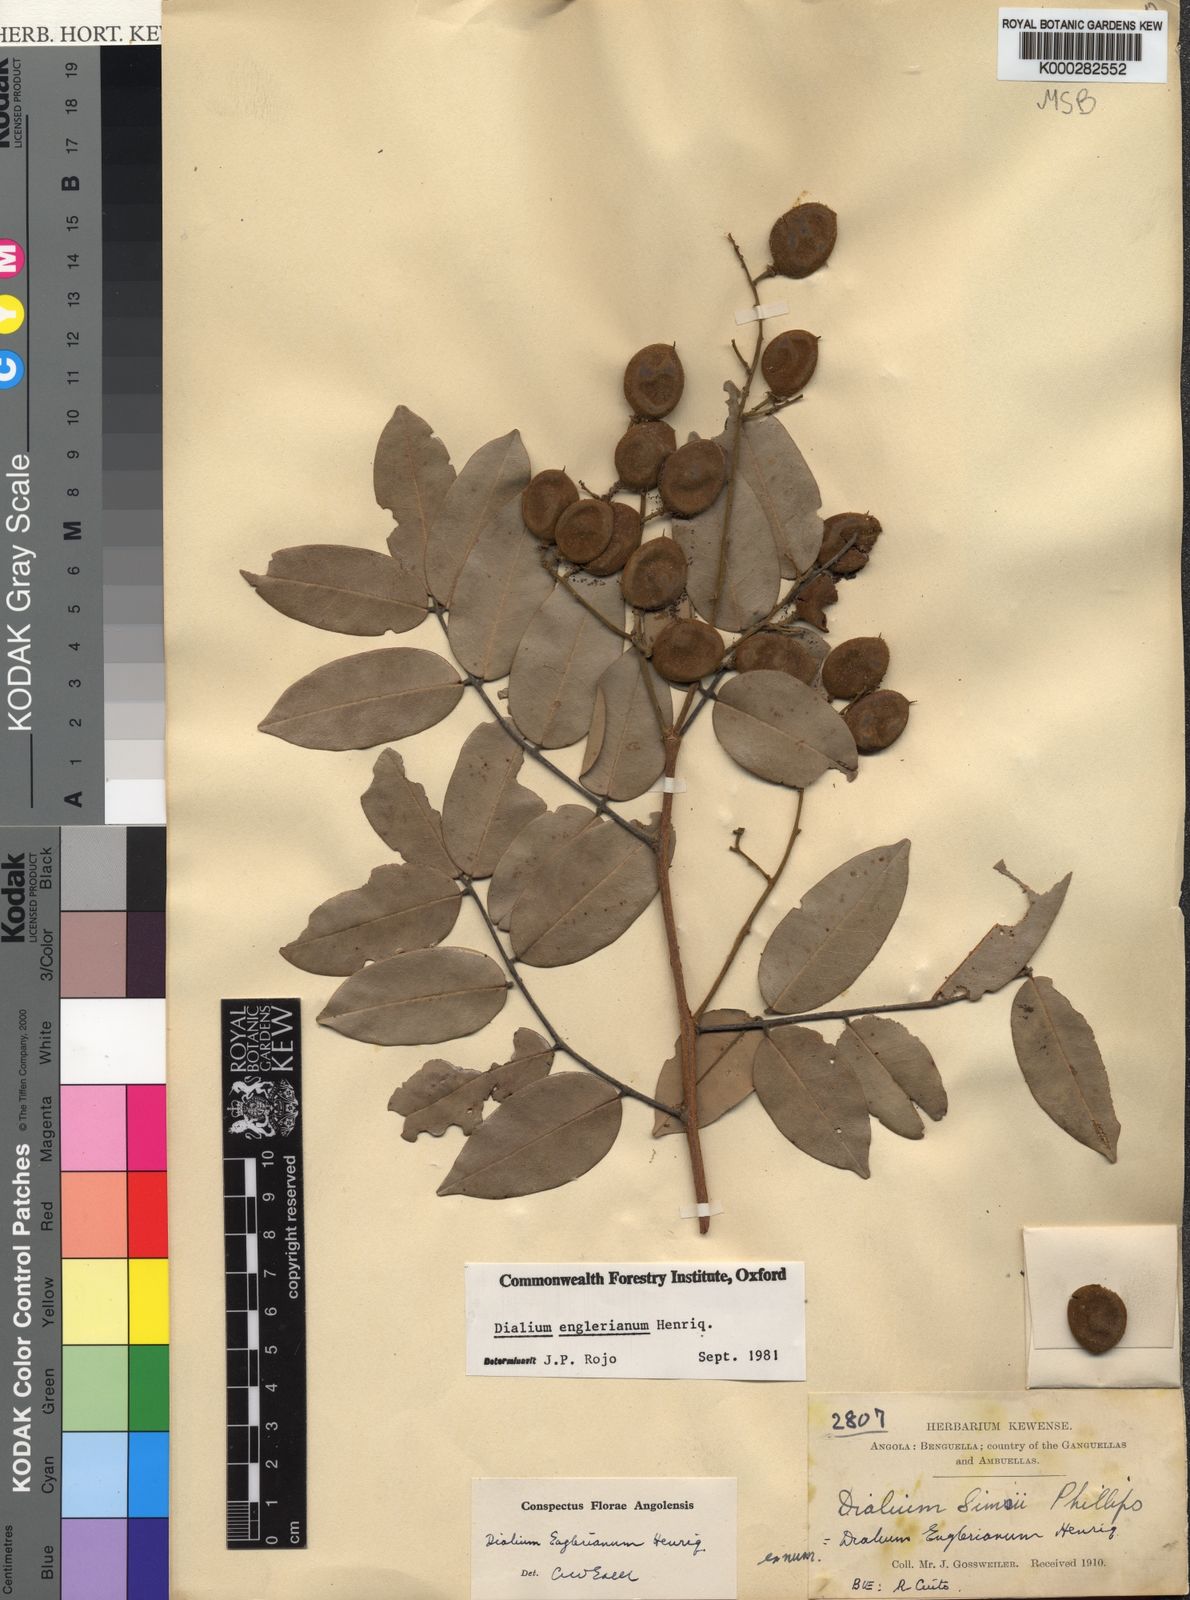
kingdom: Plantae
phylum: Tracheophyta
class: Magnoliopsida
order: Fabales
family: Fabaceae
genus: Dialium
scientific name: Dialium englerianum
